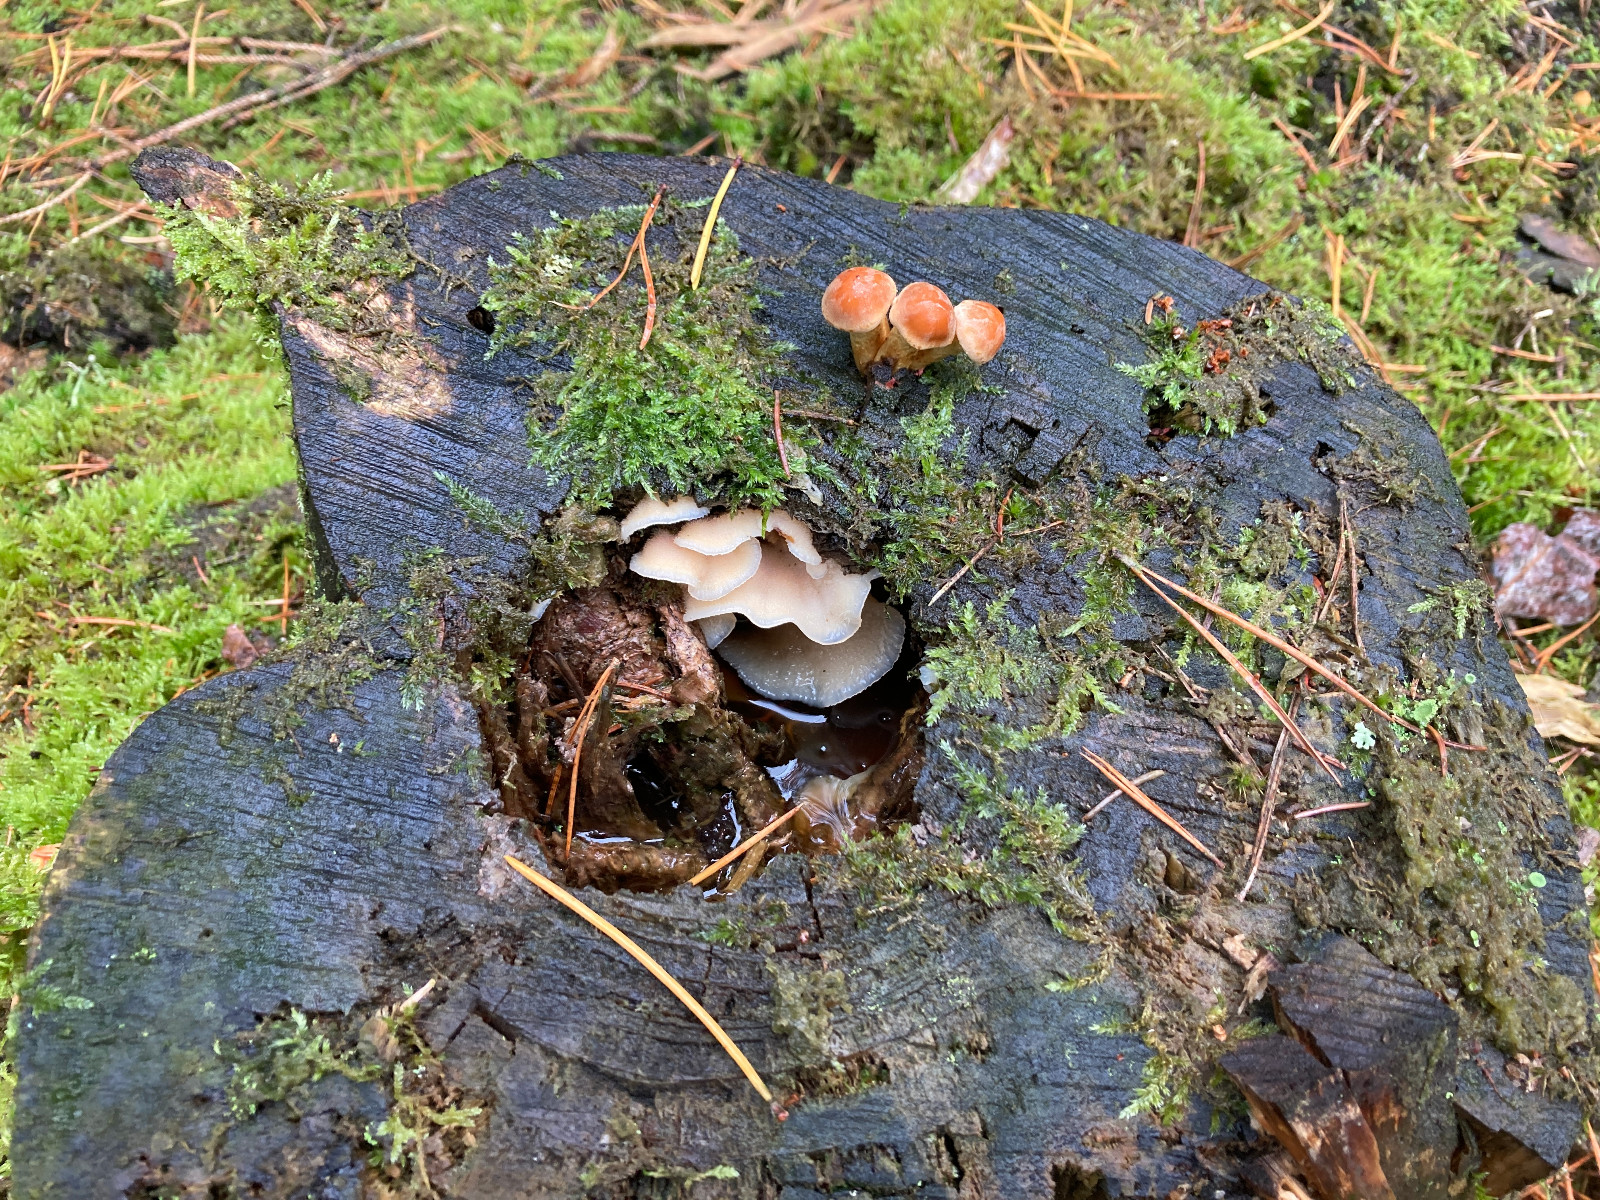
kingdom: Fungi
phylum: Basidiomycota
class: Agaricomycetes
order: Polyporales
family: Meruliaceae
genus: Phlebia
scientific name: Phlebia tremellosa
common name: bævrende åresvamp
